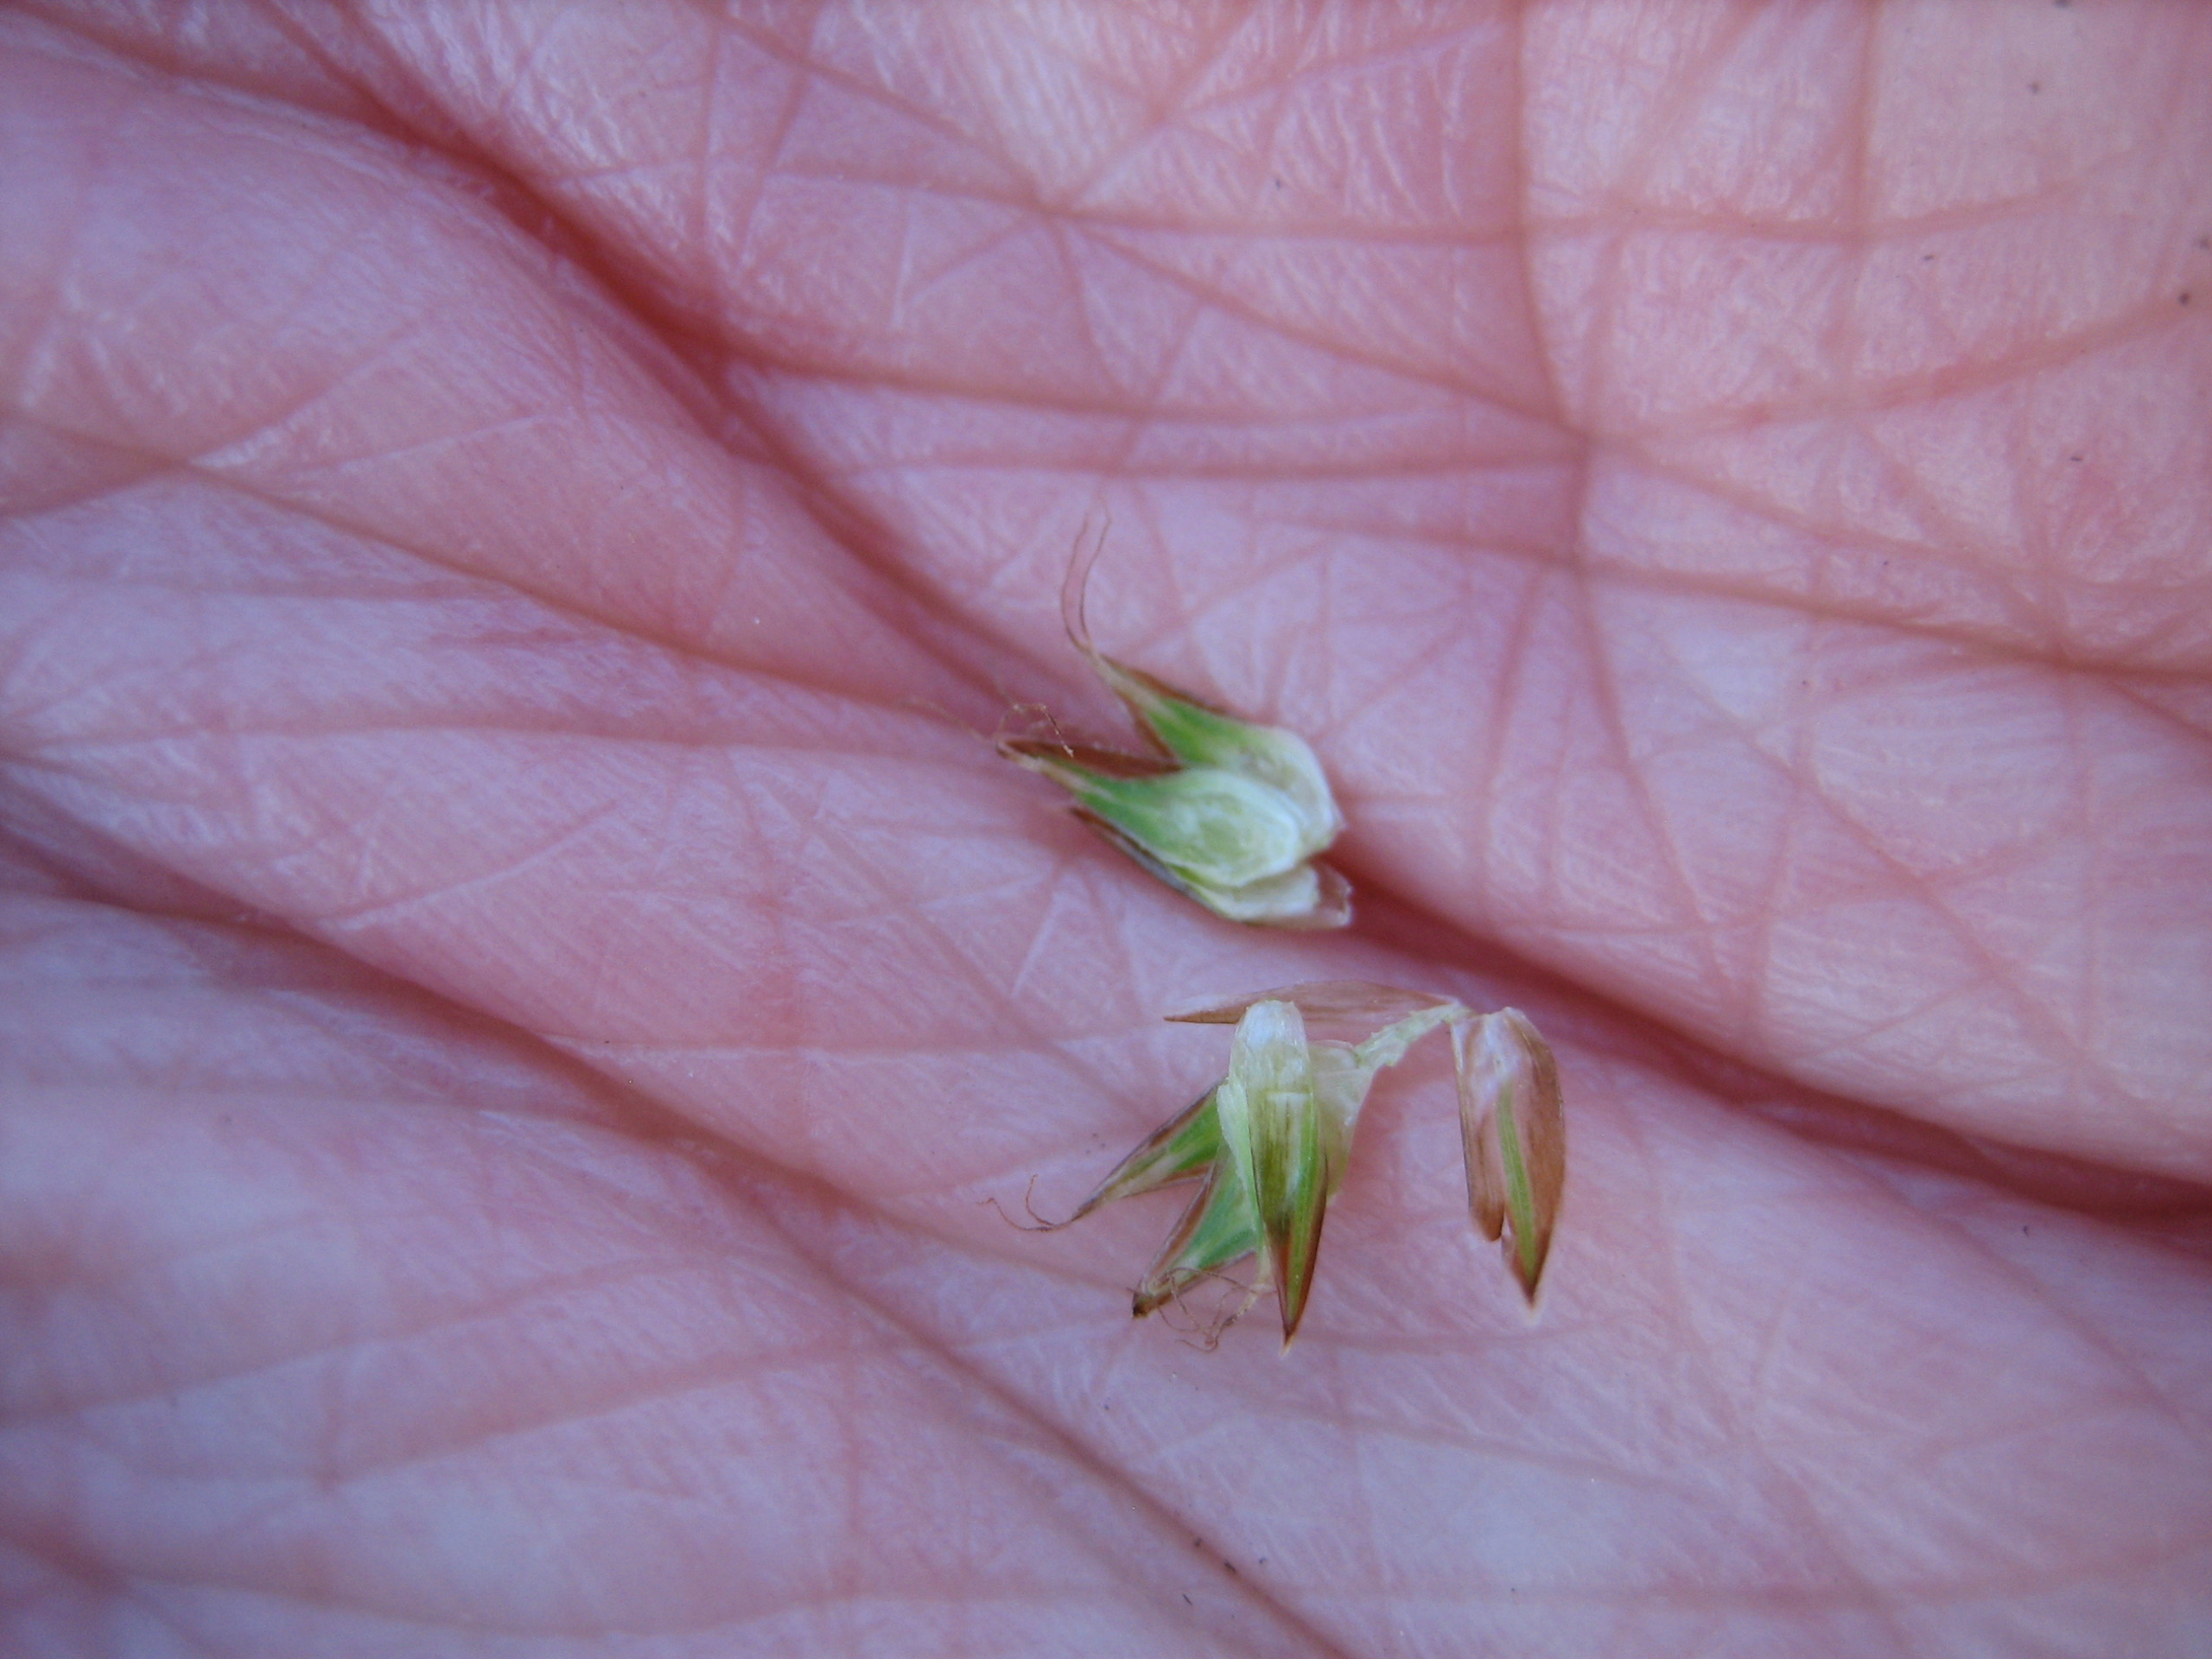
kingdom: Plantae
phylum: Tracheophyta
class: Liliopsida
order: Poales
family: Cyperaceae
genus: Carex
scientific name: Carex leporina
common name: Hare-star
